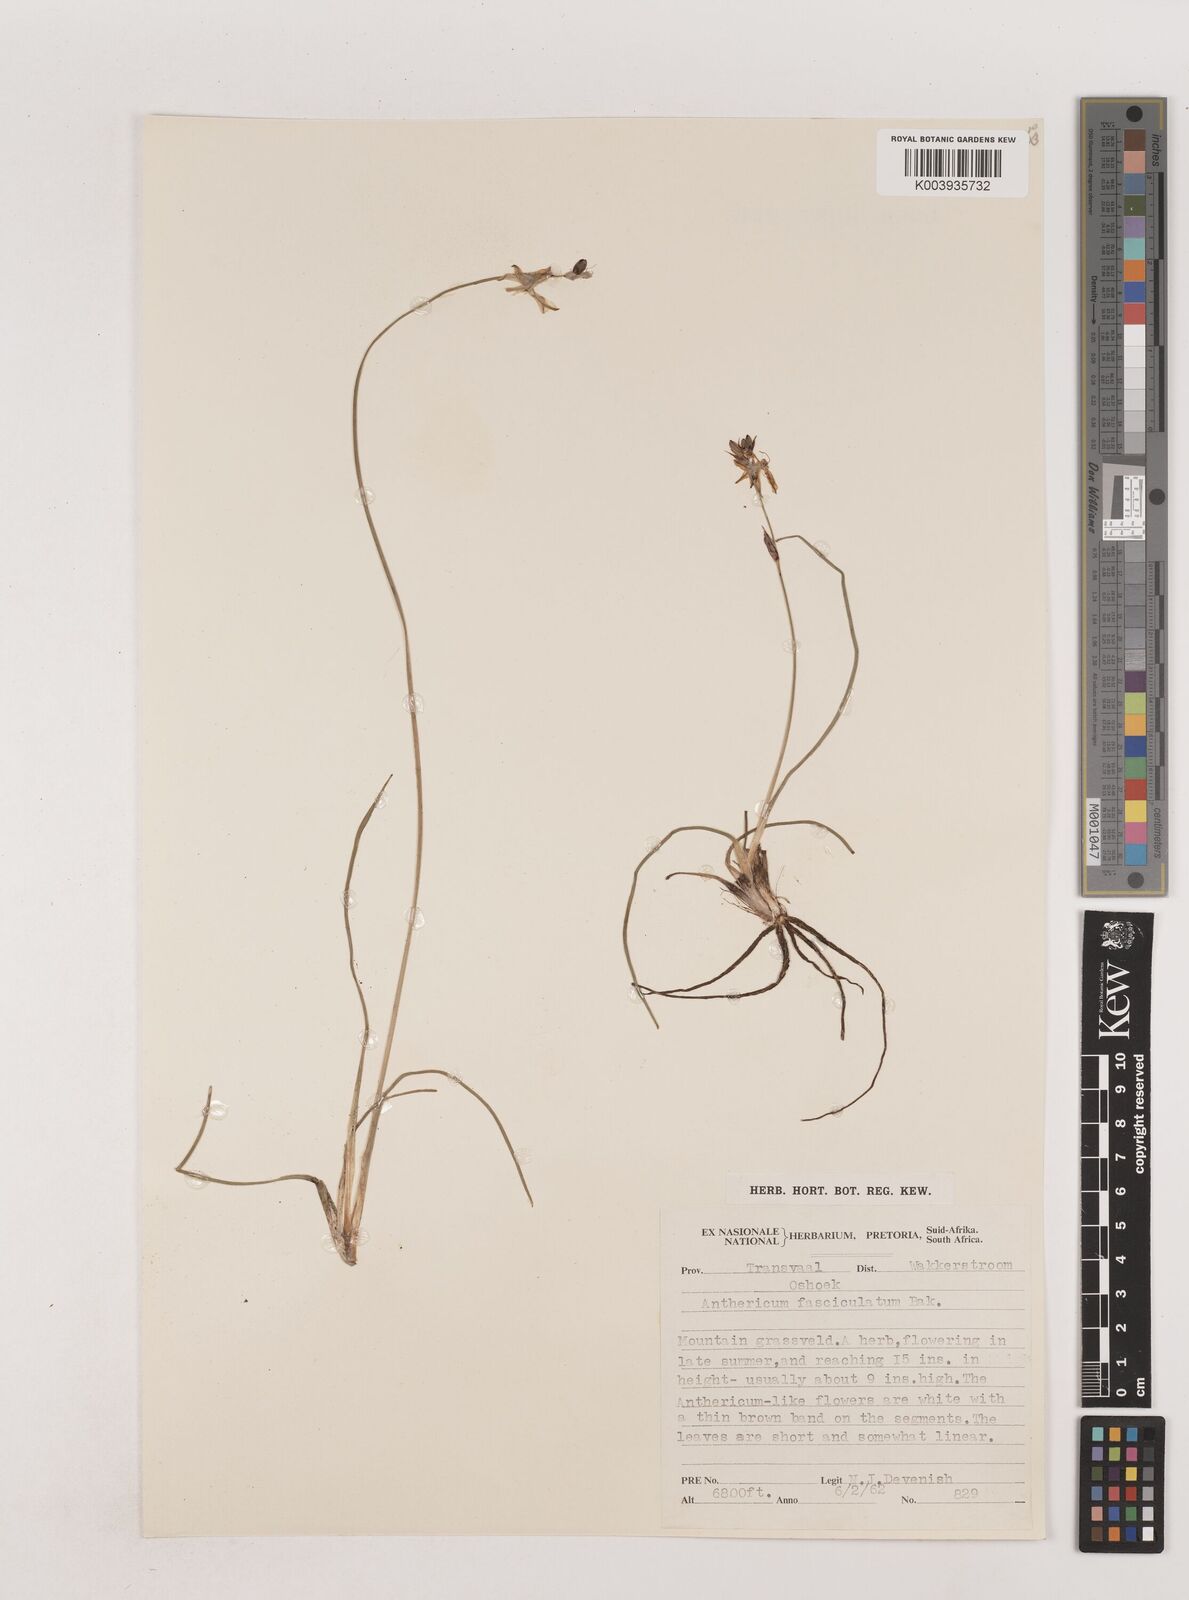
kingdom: Plantae
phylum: Tracheophyta
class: Liliopsida
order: Asparagales
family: Asparagaceae
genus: Chlorophytum
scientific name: Chlorophytum fasciculatum
